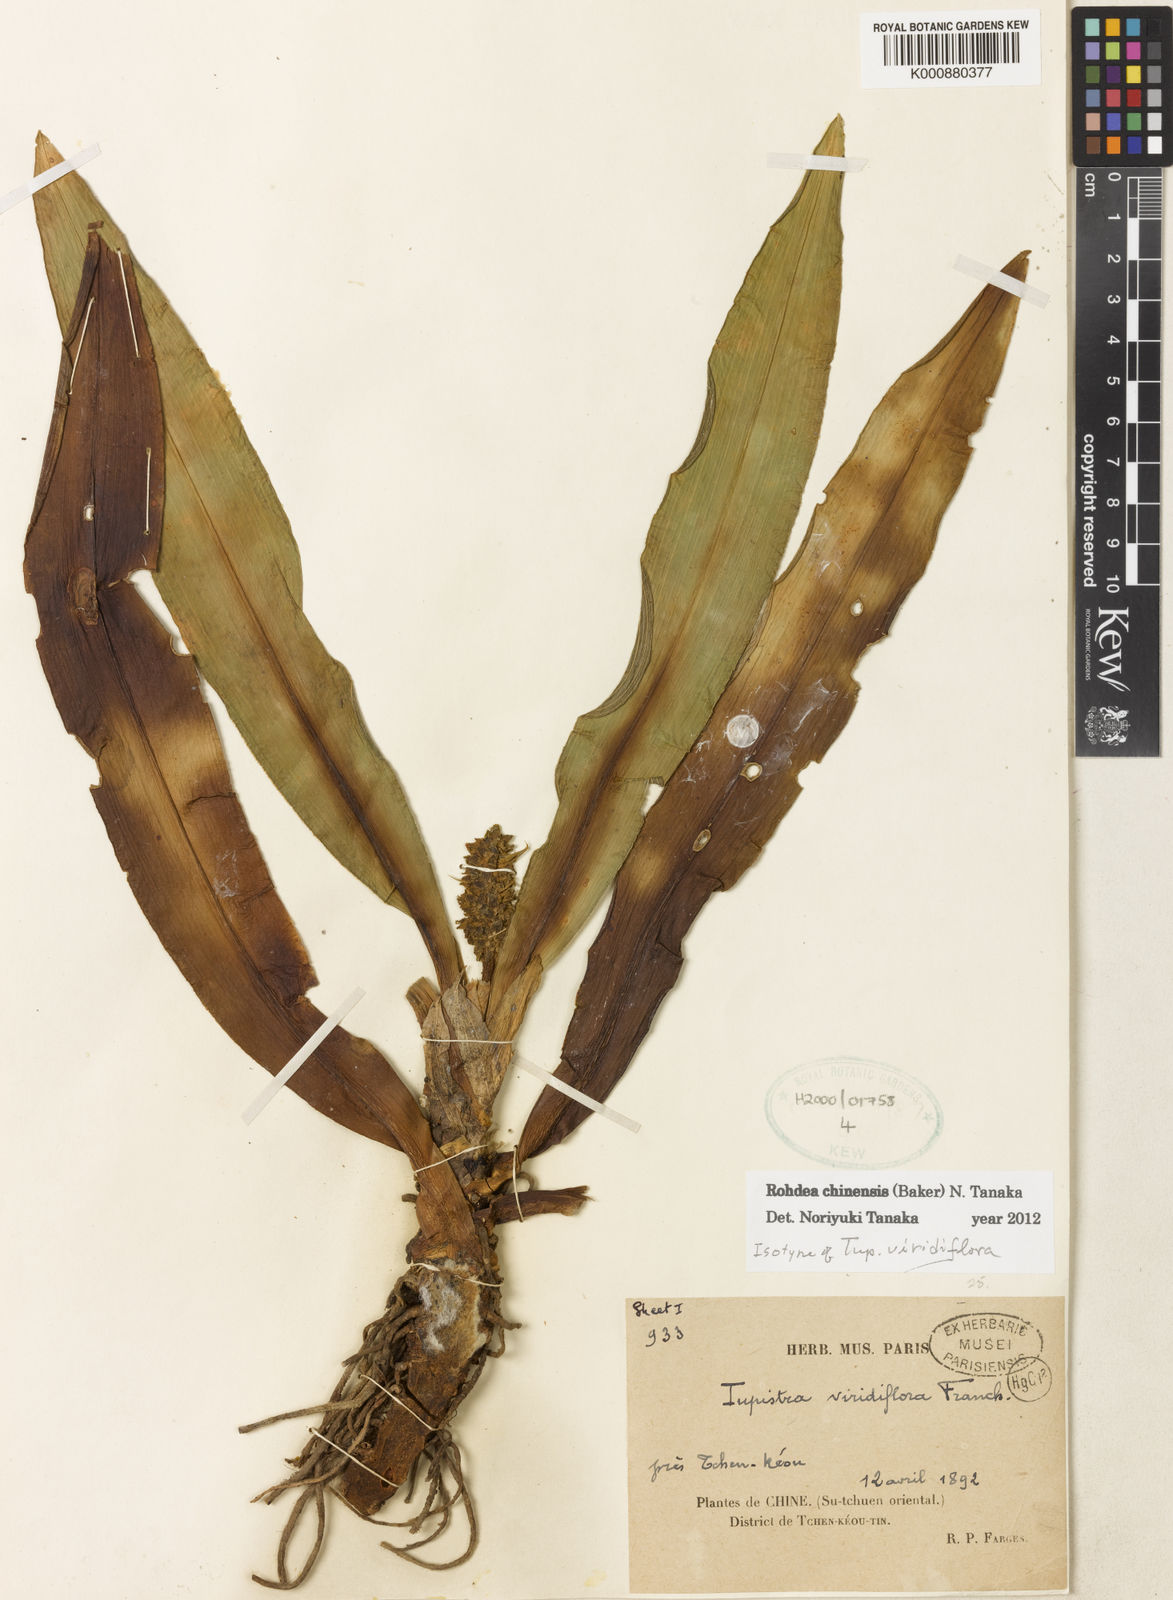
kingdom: Plantae
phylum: Tracheophyta
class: Liliopsida
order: Asparagales
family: Asparagaceae
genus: Rohdea
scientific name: Rohdea fargesii
